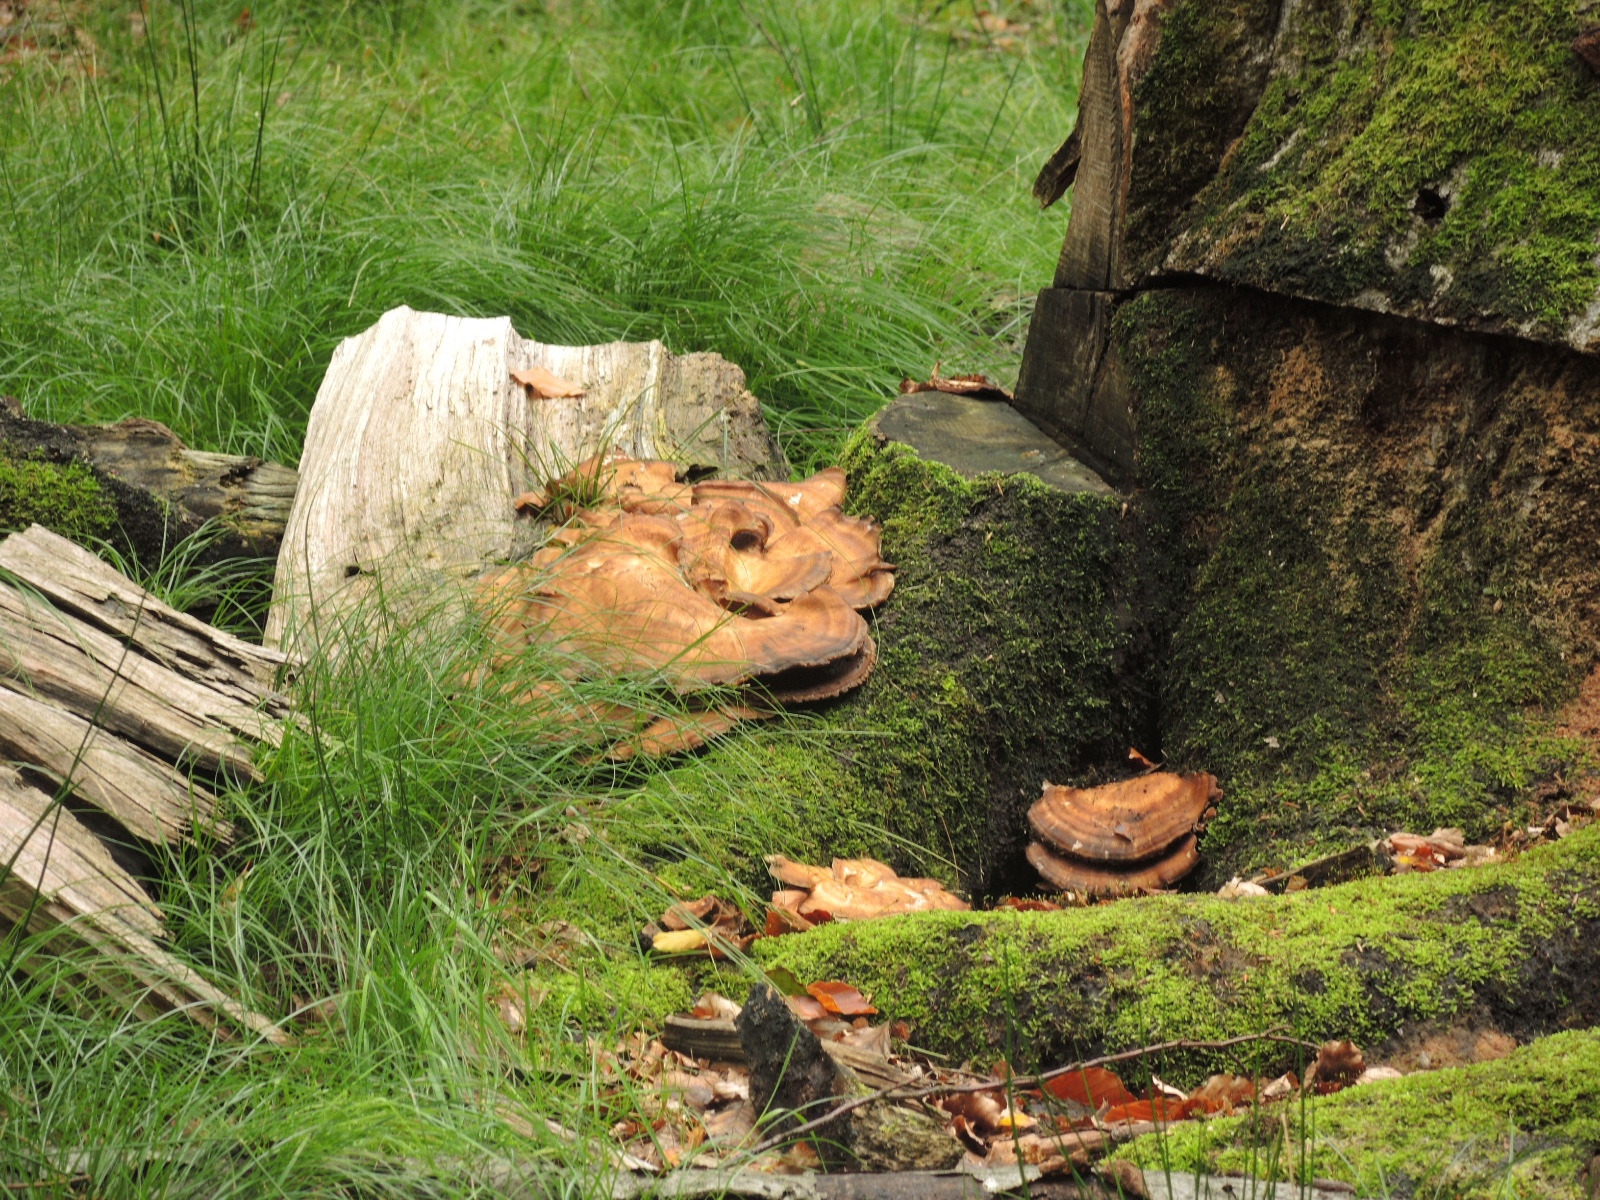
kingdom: Fungi
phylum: Basidiomycota
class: Agaricomycetes
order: Polyporales
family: Meripilaceae
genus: Meripilus
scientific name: Meripilus giganteus
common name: kæmpeporesvamp
